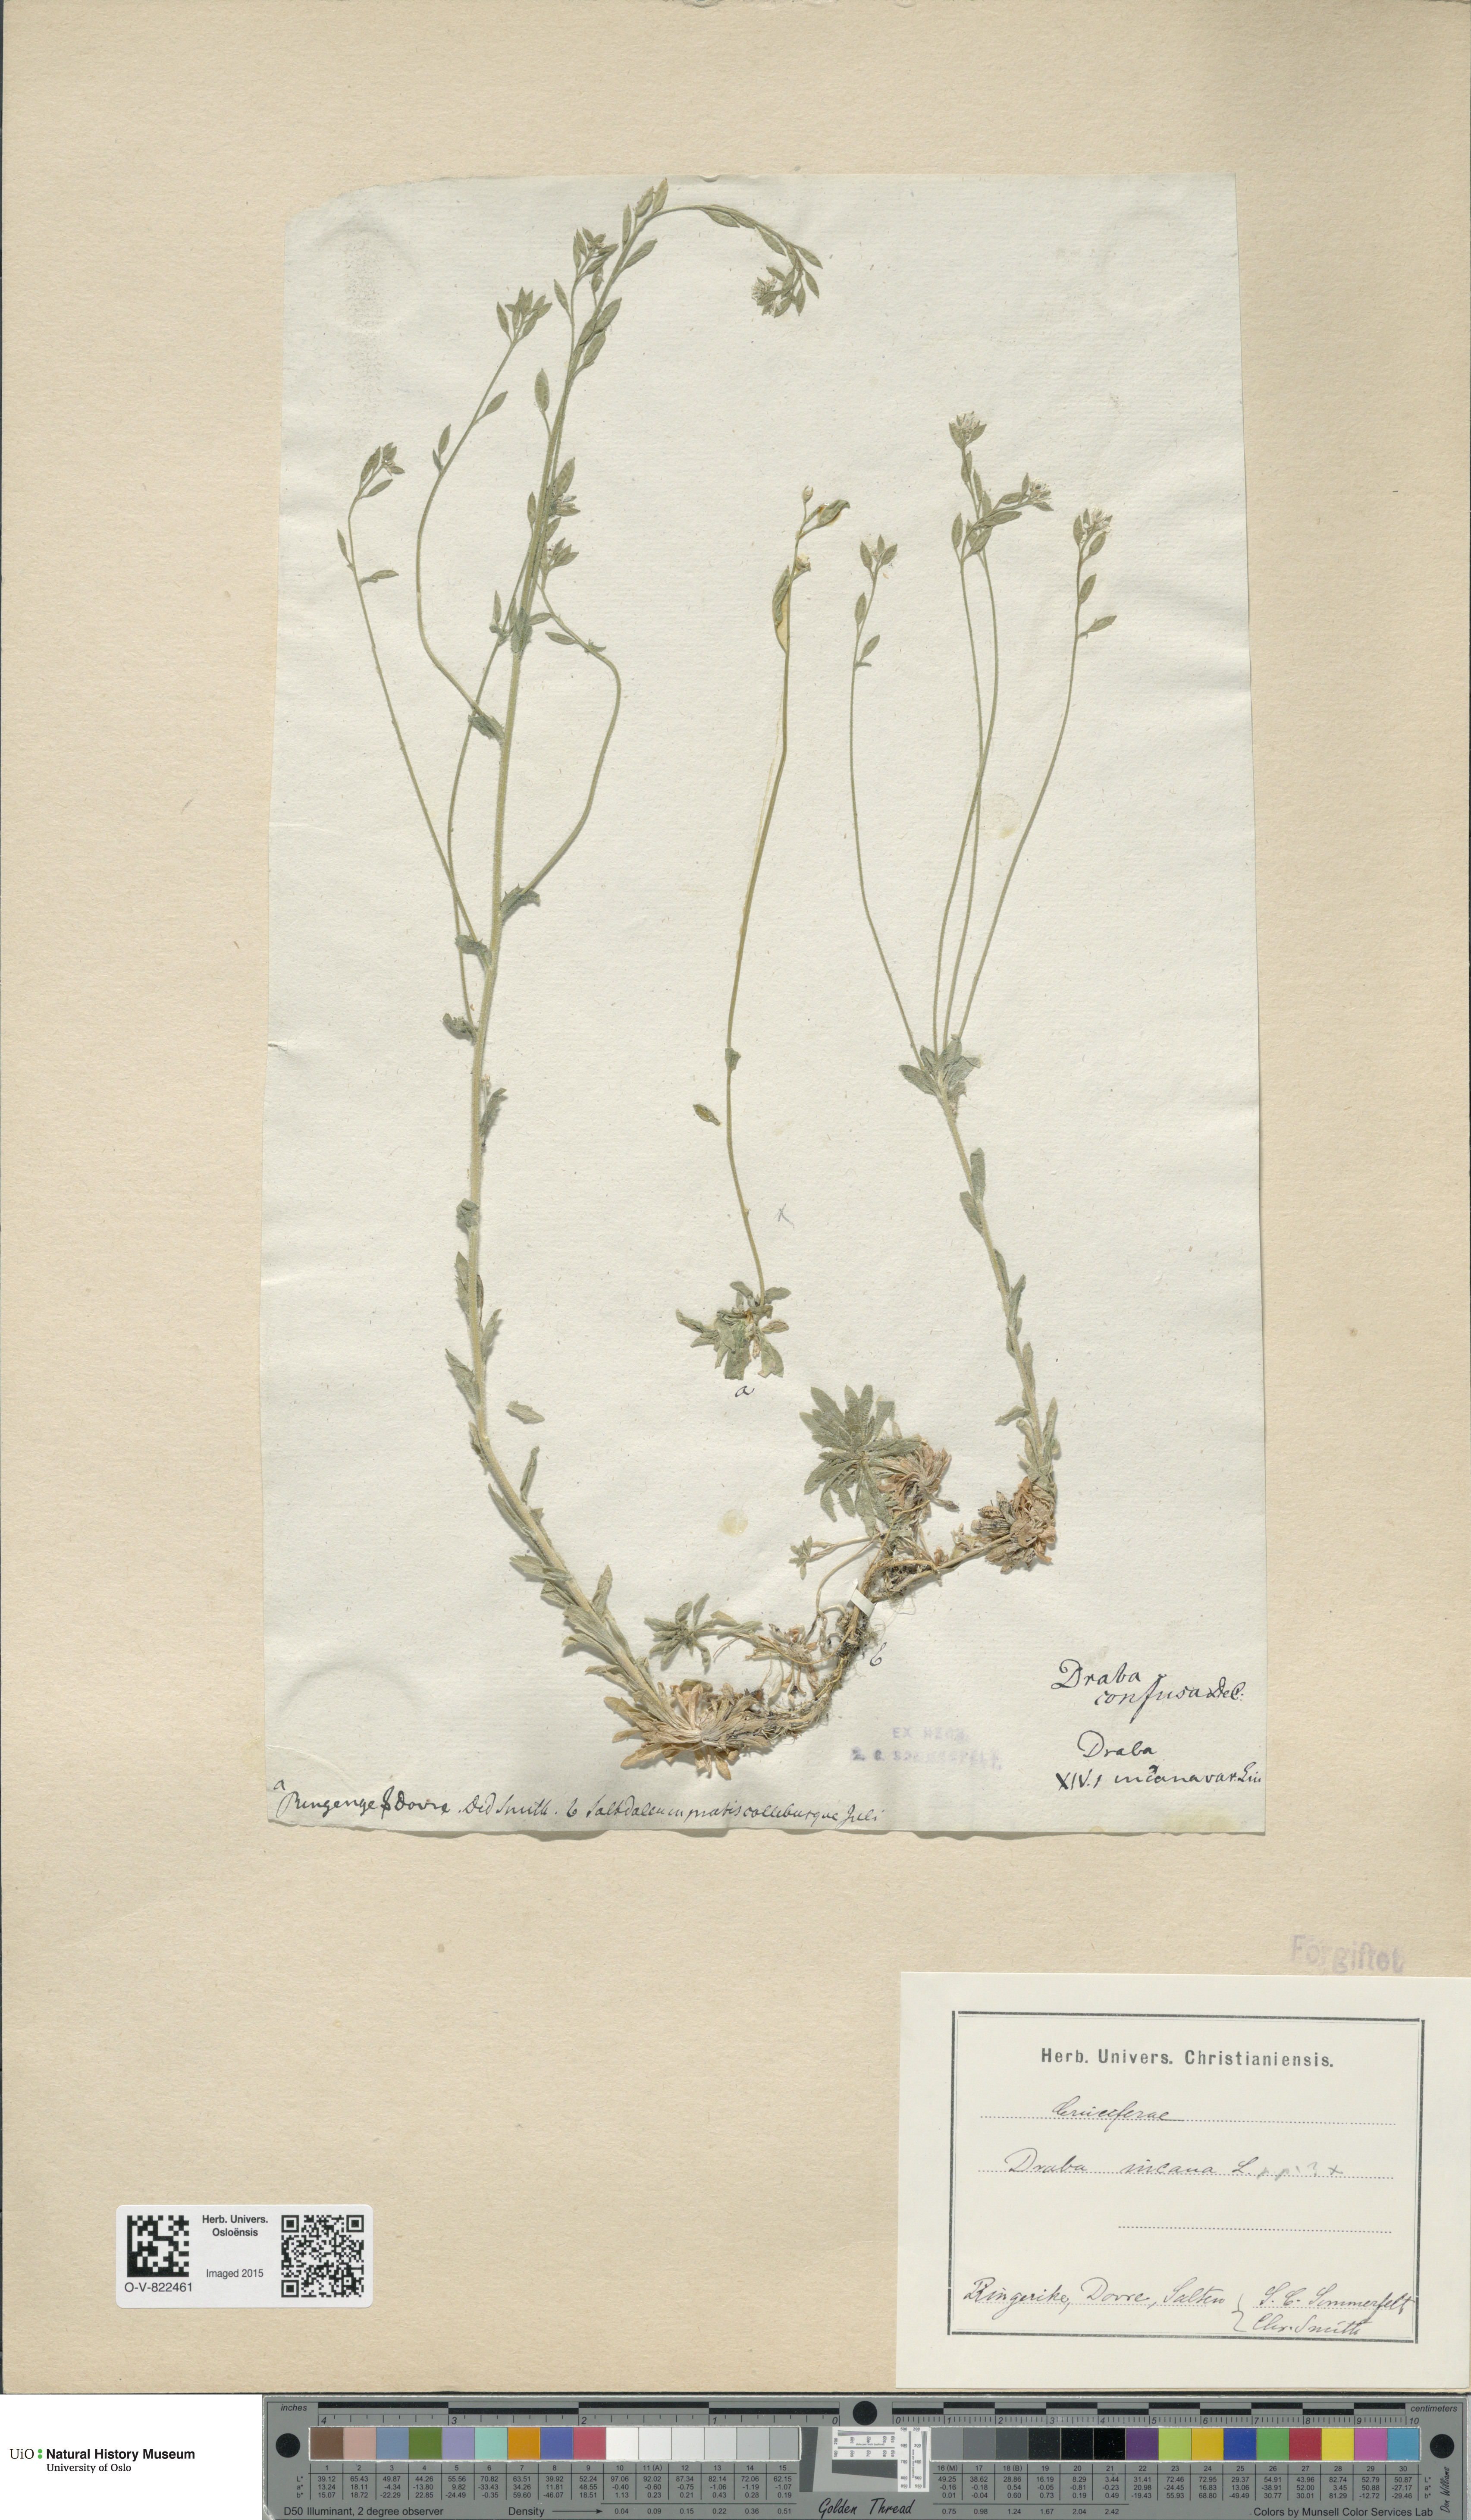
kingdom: Plantae
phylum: Tracheophyta
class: Magnoliopsida
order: Brassicales
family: Brassicaceae
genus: Draba
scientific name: Draba incana
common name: Hoary whitlow-grass
